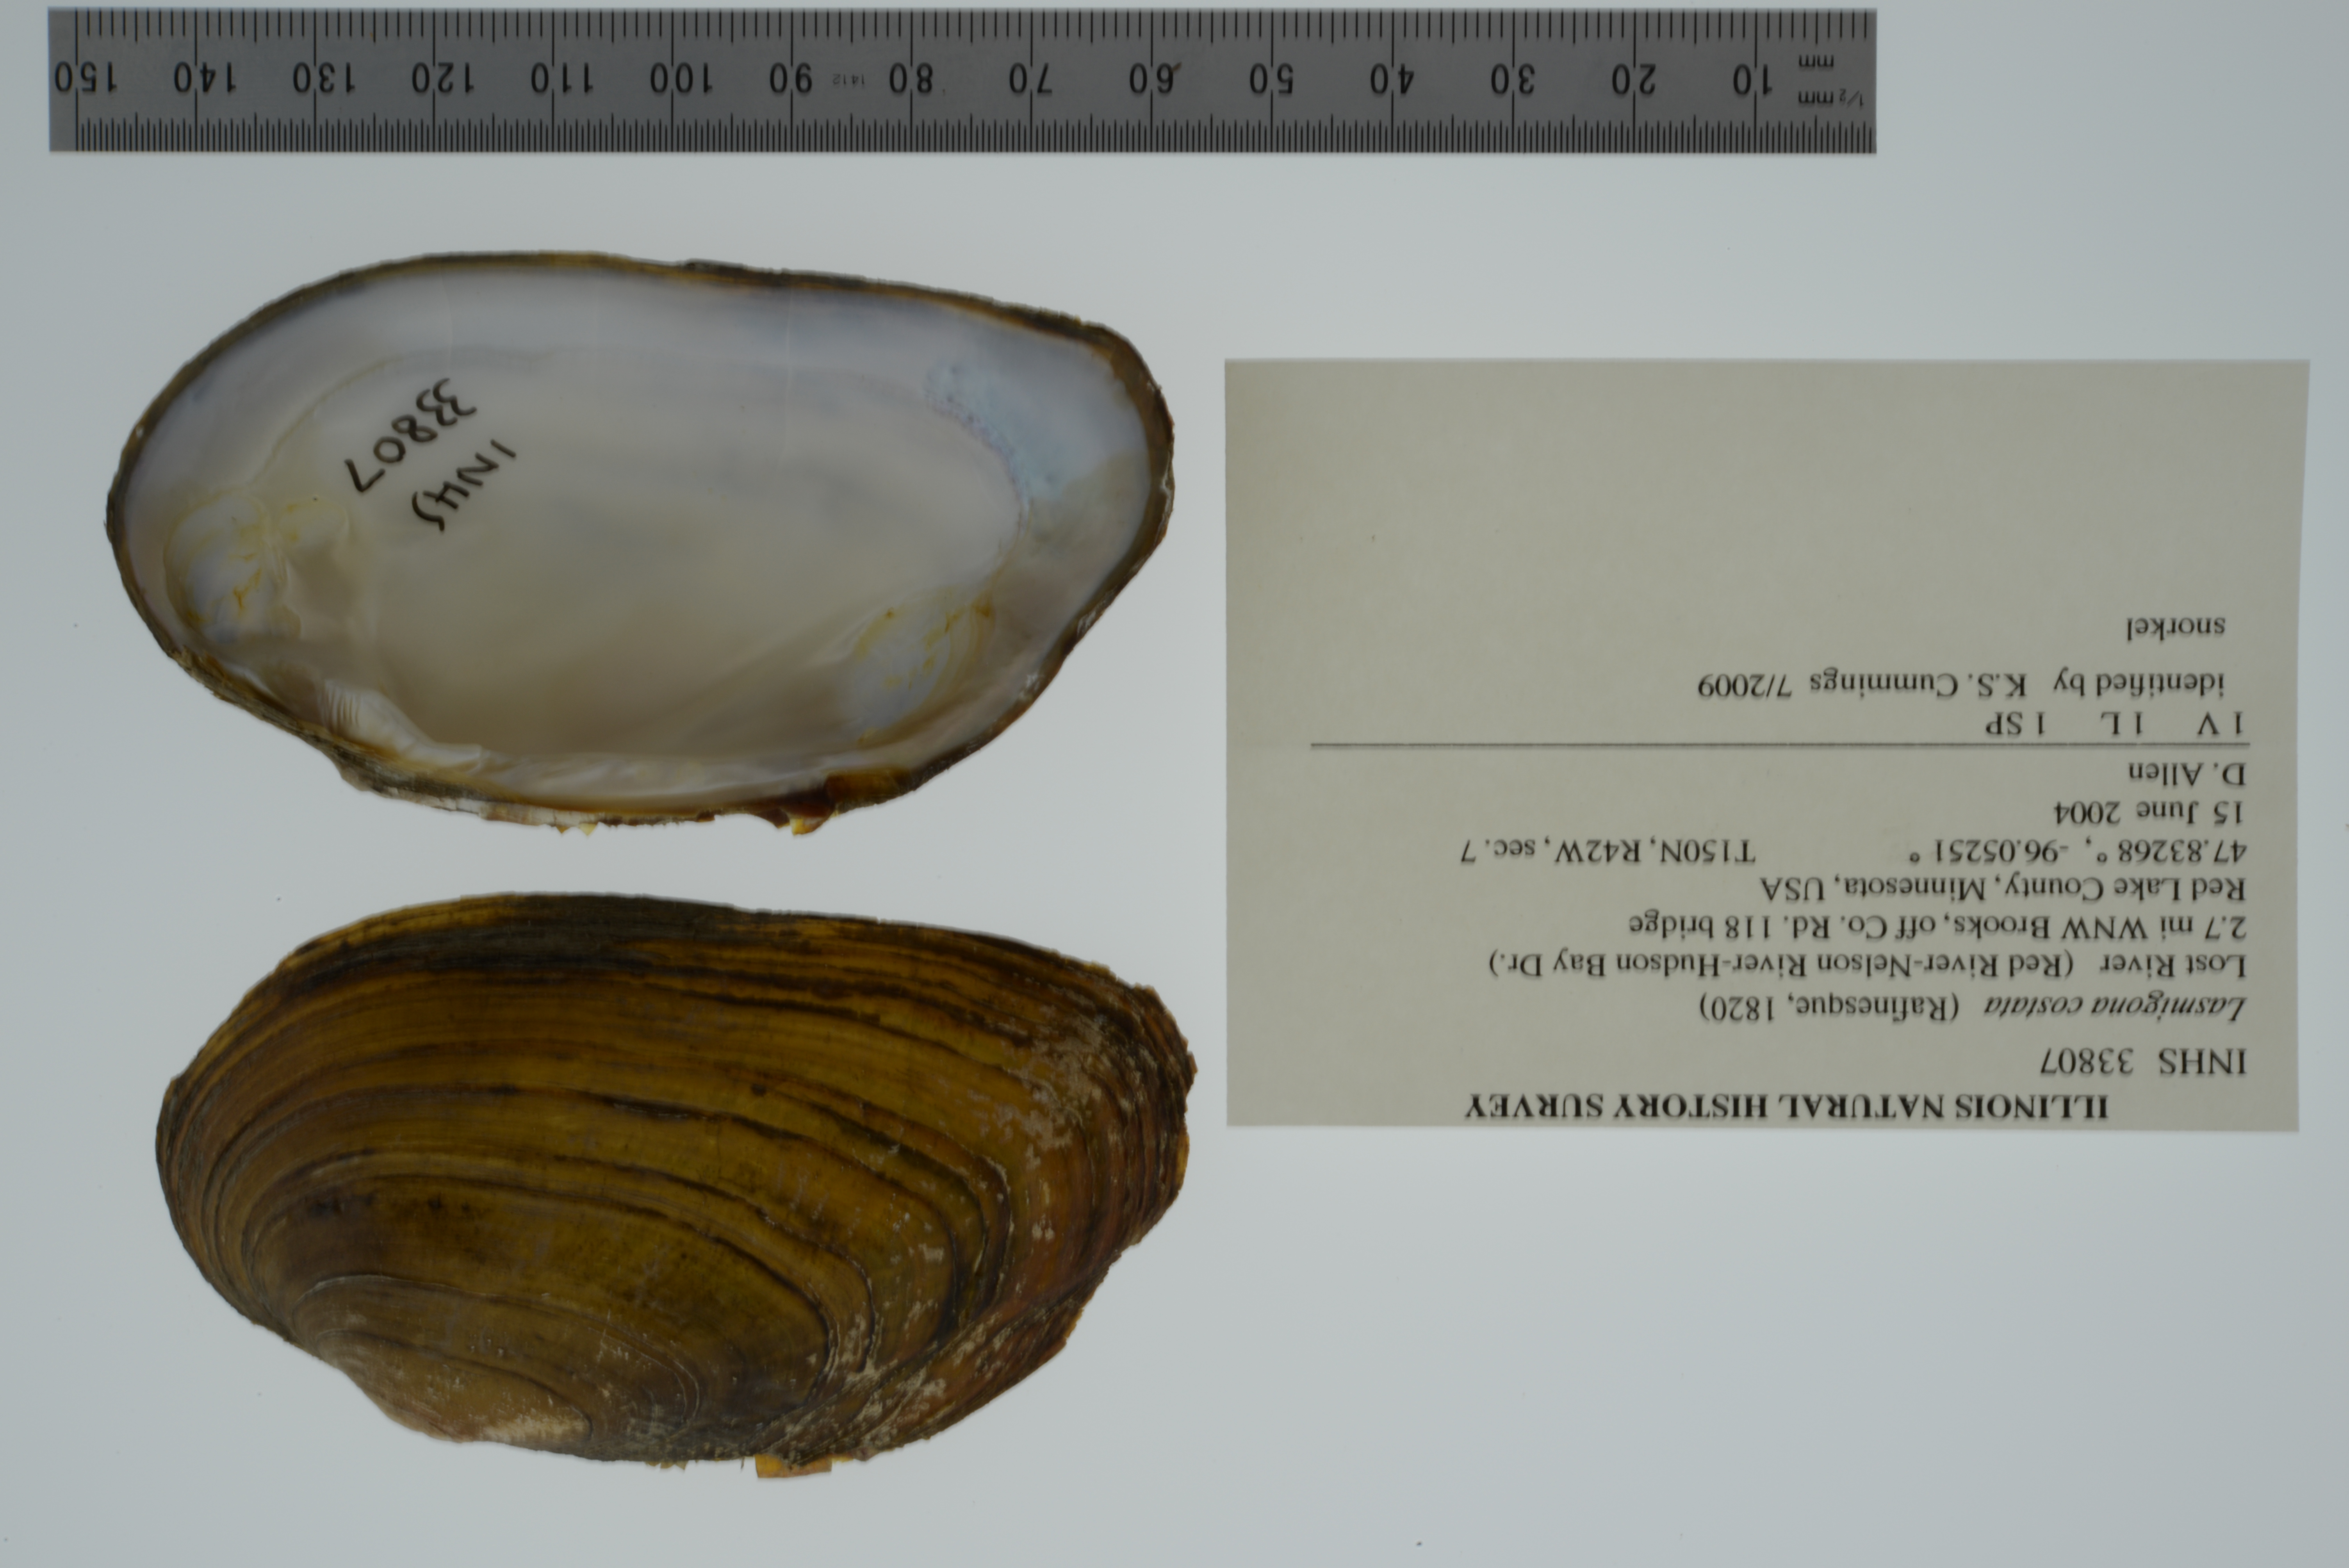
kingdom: Animalia
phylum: Mollusca
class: Bivalvia
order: Unionida
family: Unionidae
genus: Lasmigona
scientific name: Lasmigona costata
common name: Flutedshell
